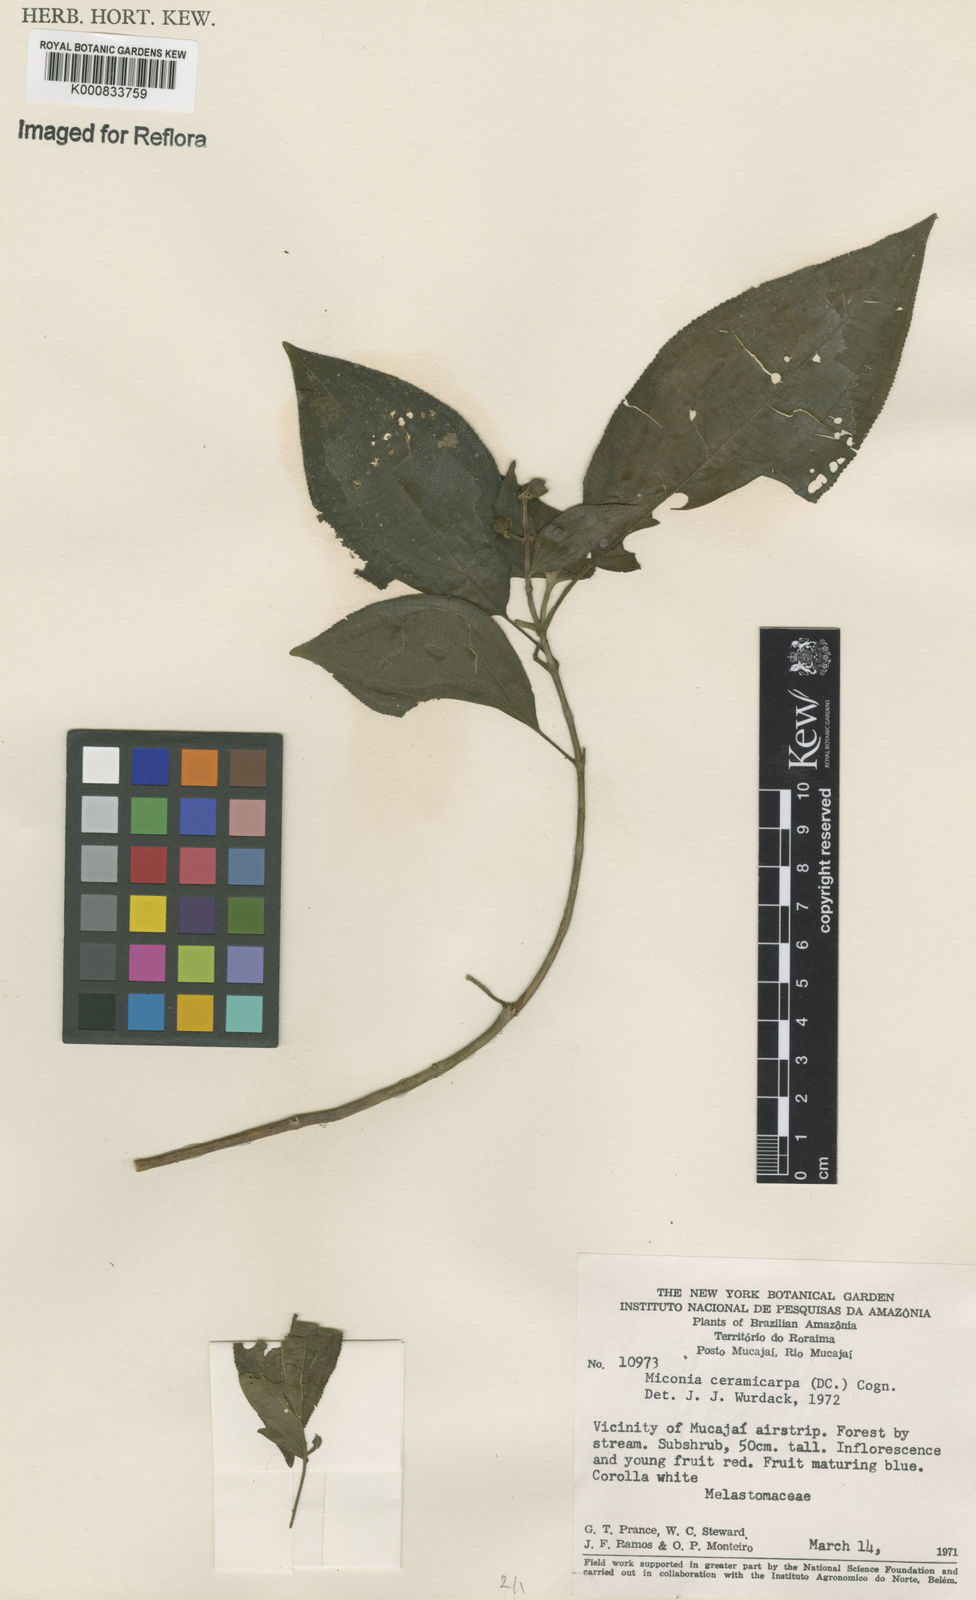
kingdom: Plantae
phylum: Tracheophyta
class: Magnoliopsida
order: Myrtales
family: Melastomataceae
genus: Miconia
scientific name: Miconia ceramicarpa
